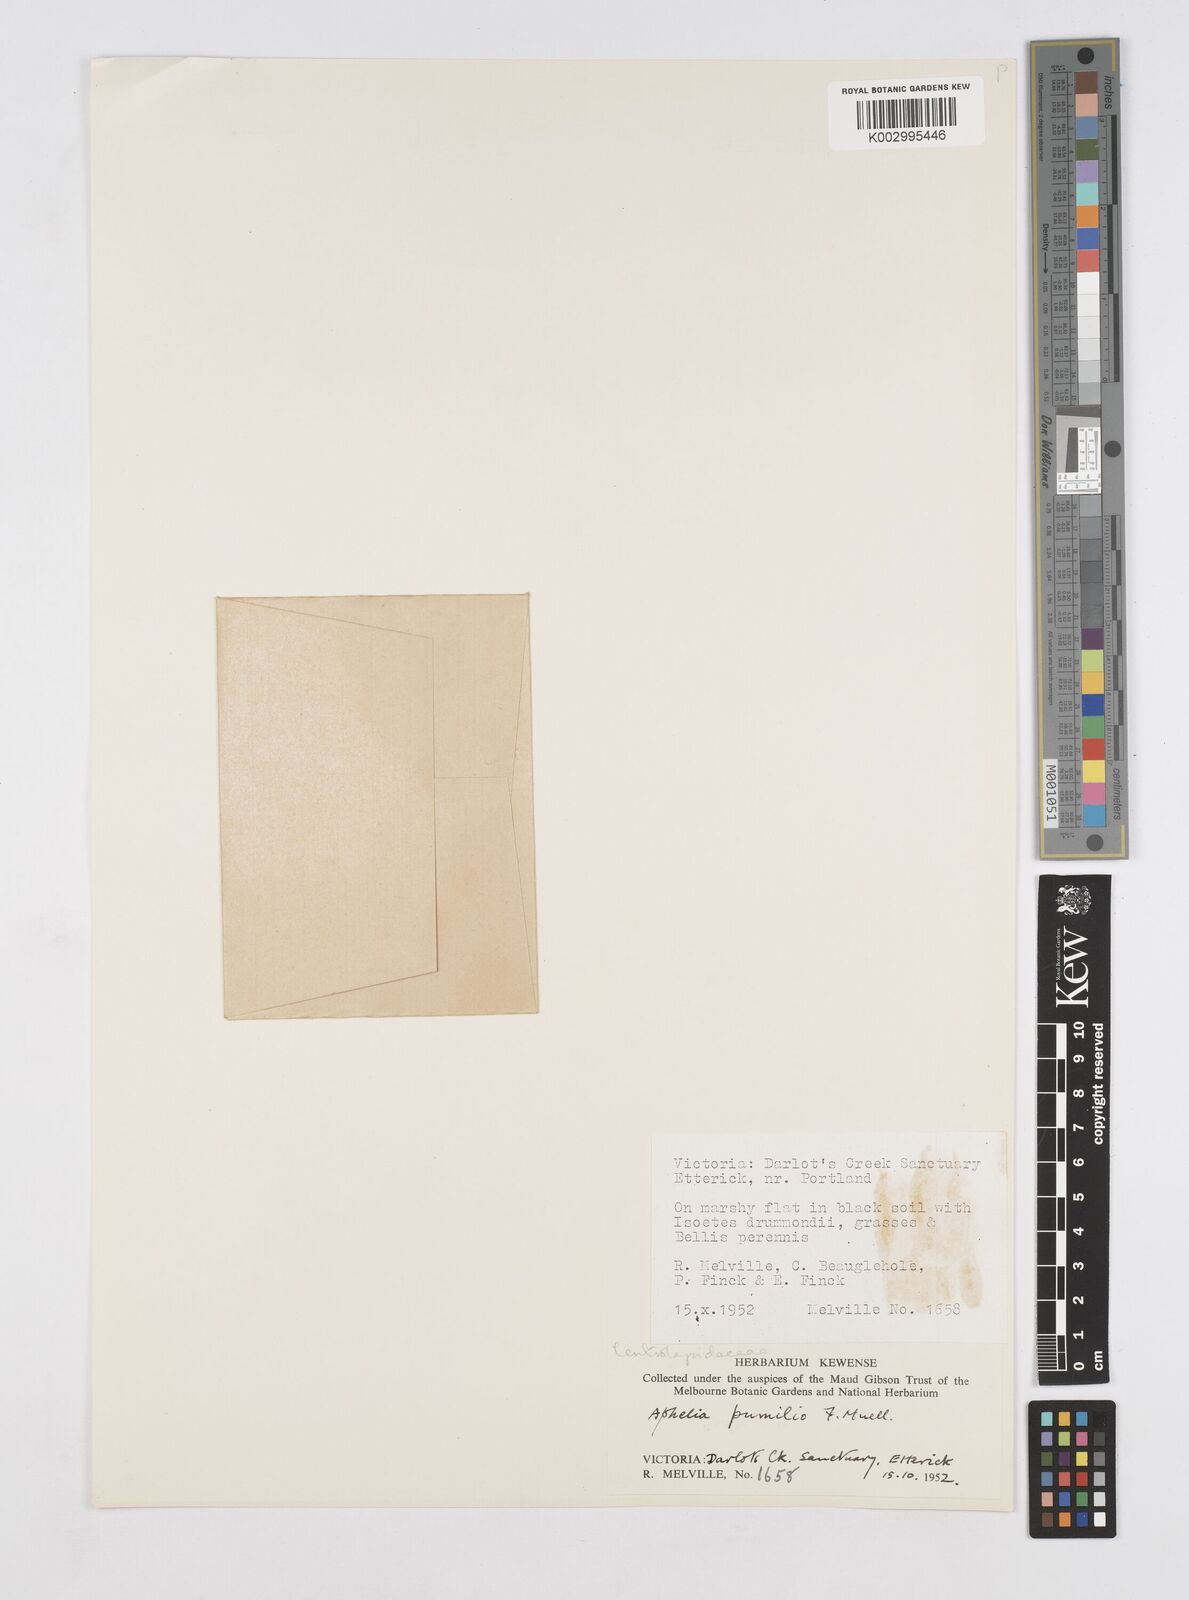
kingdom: Plantae
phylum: Tracheophyta
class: Liliopsida
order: Poales
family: Restionaceae
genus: Aphelia
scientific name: Aphelia pumilio
